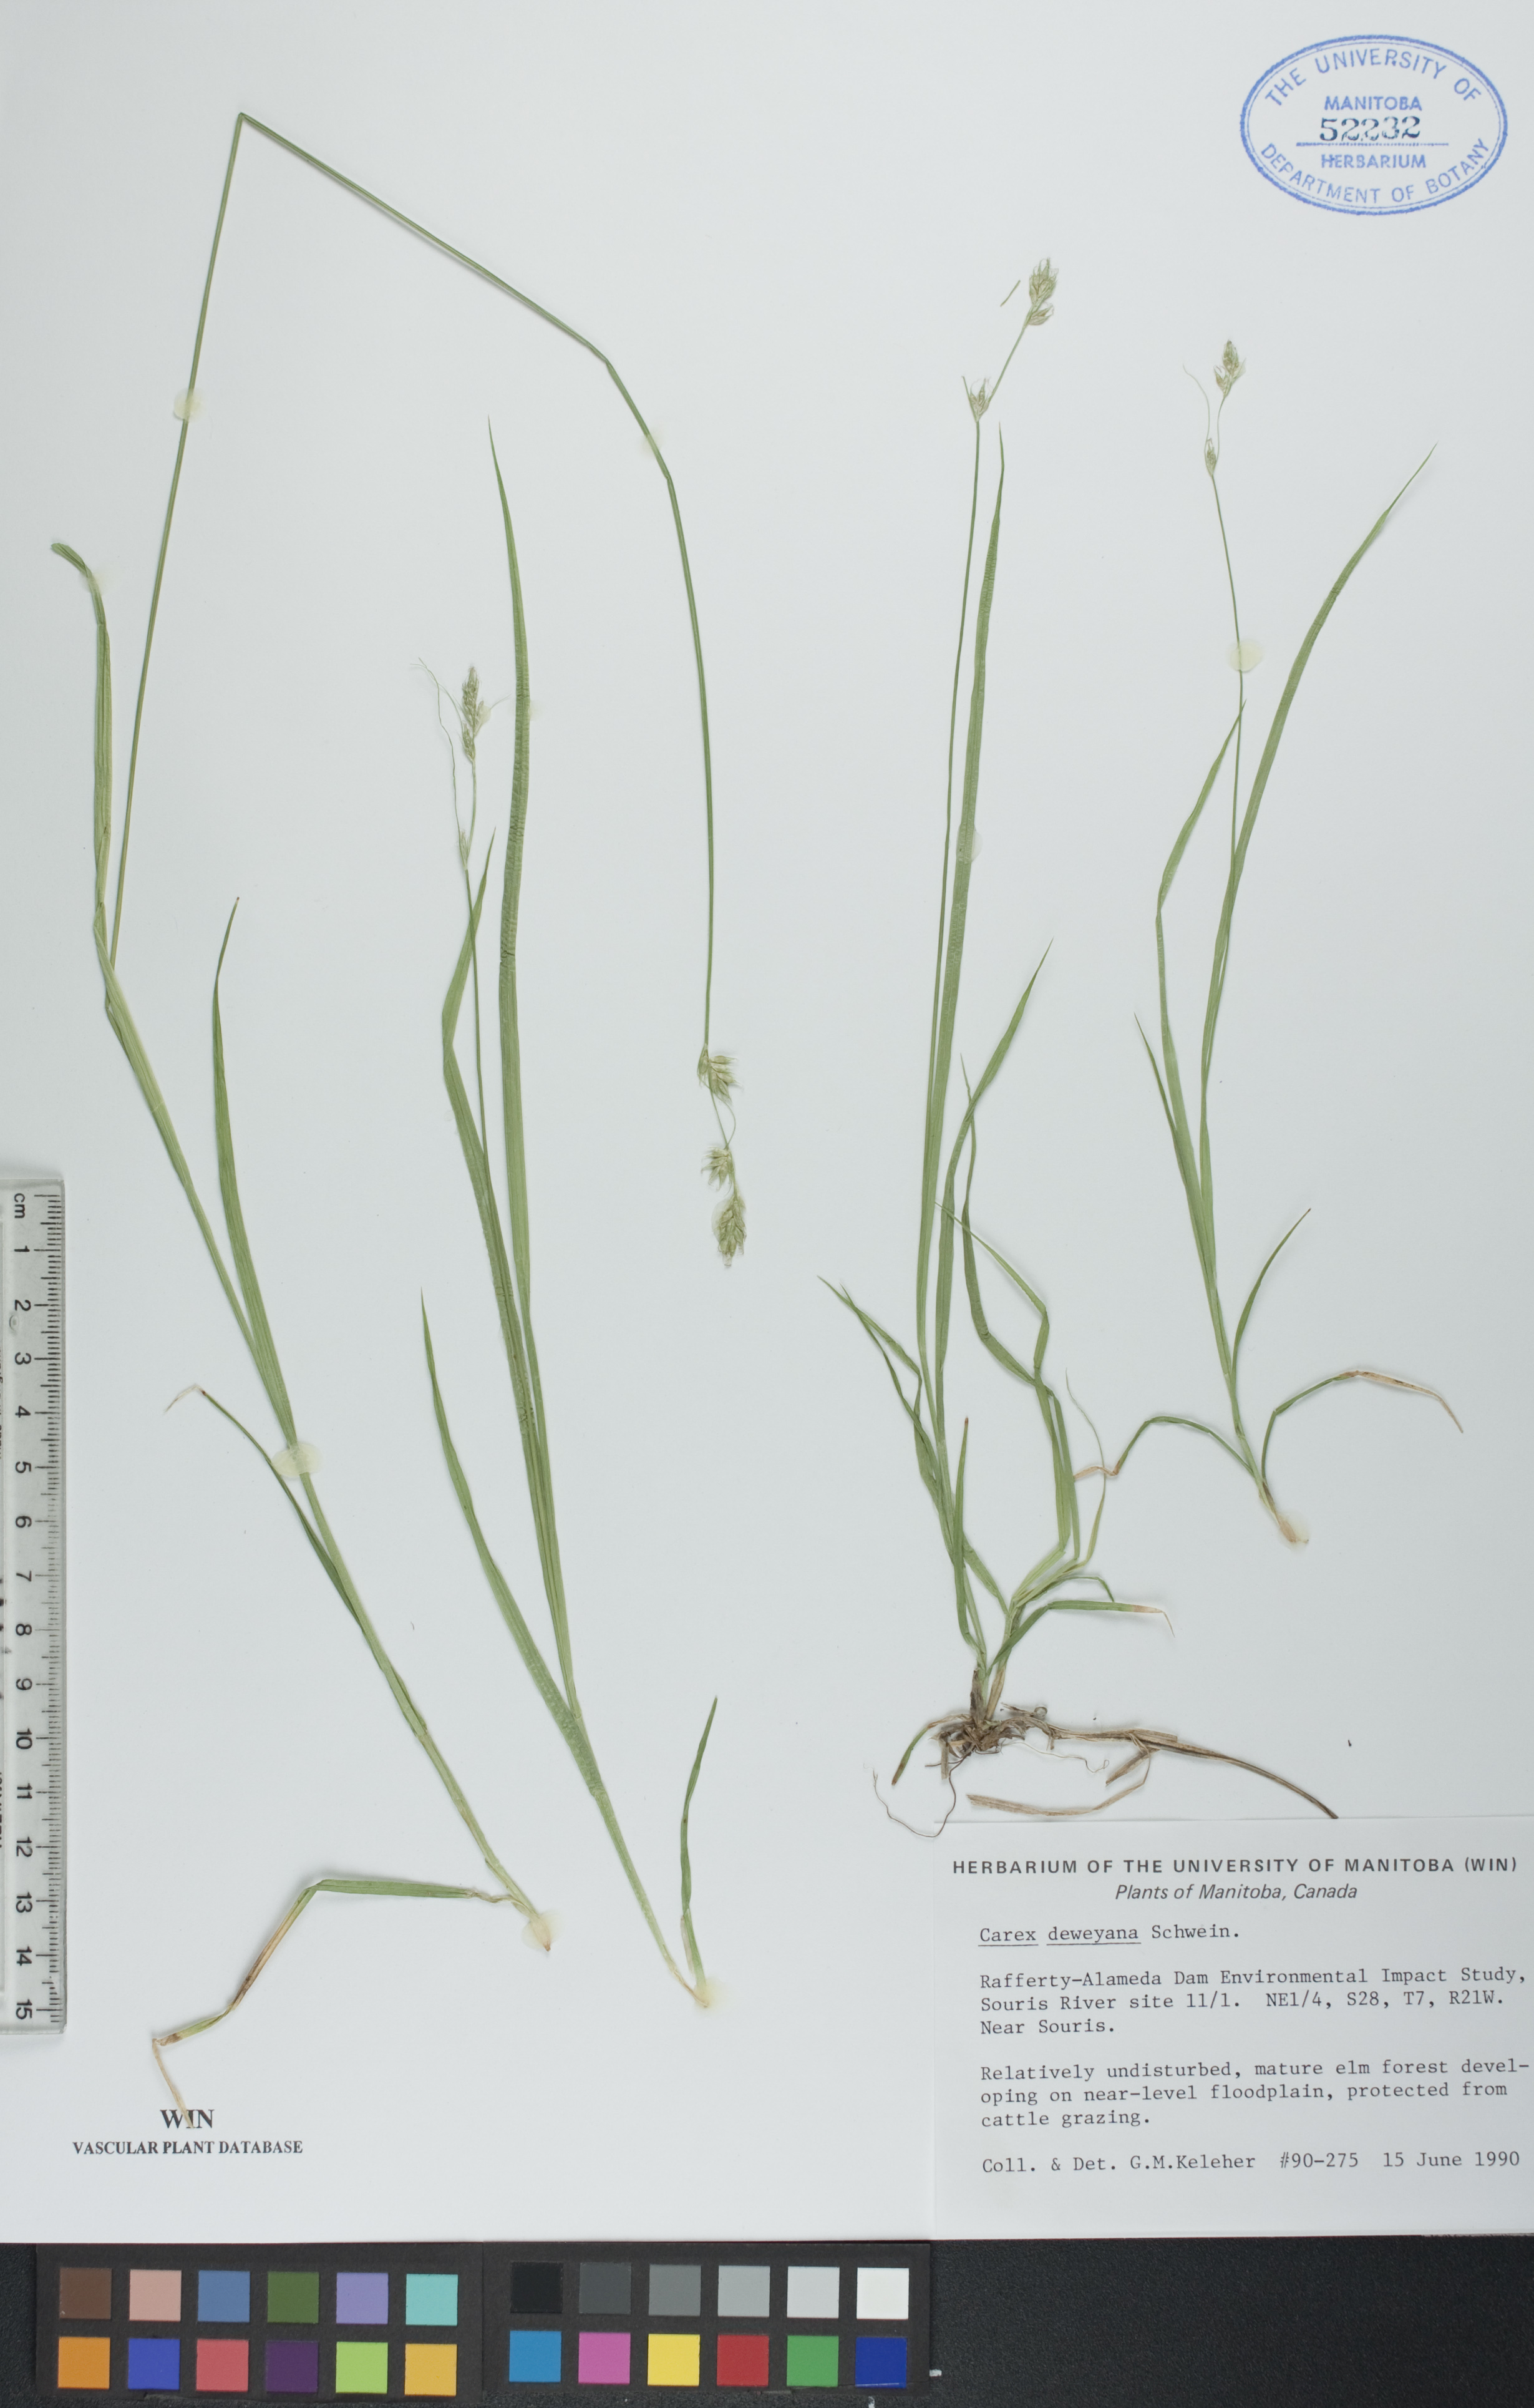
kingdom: Plantae
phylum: Tracheophyta
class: Liliopsida
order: Poales
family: Cyperaceae
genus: Carex
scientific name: Carex deweyana
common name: Dewey's sedge
